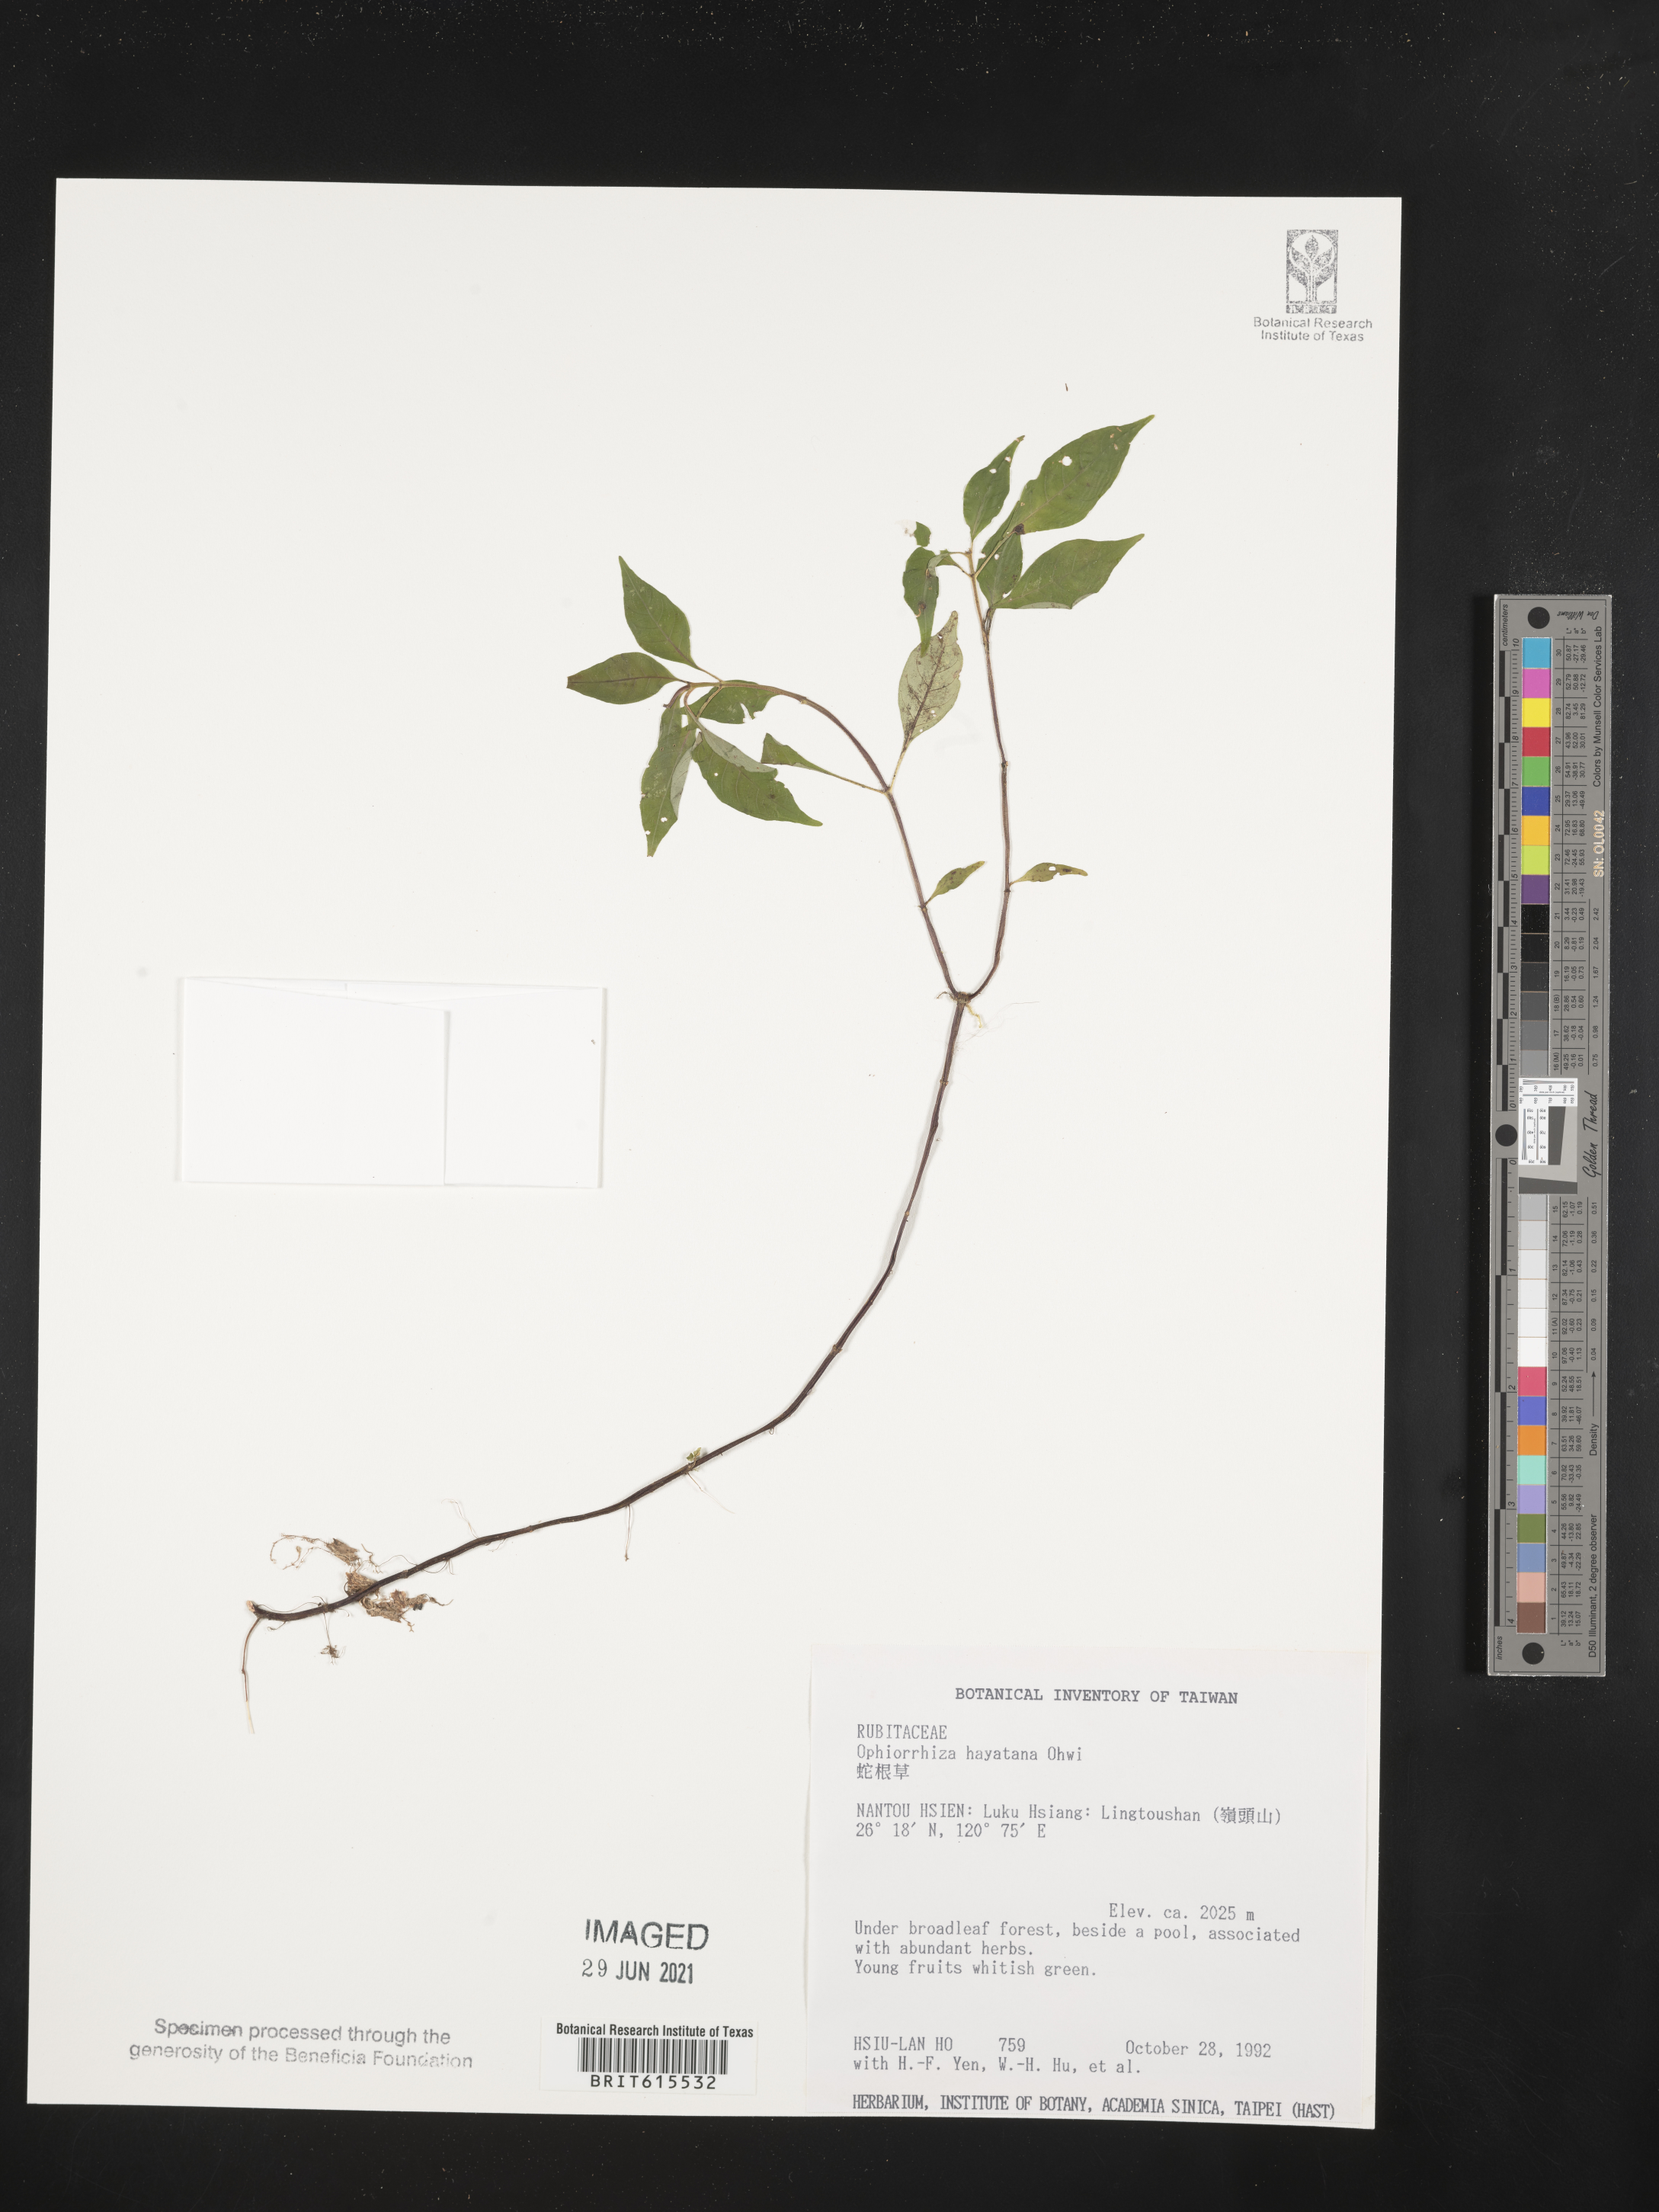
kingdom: Plantae
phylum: Tracheophyta
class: Magnoliopsida
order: Gentianales
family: Rubiaceae
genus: Ophiorrhiza
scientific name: Ophiorrhiza hayatana
